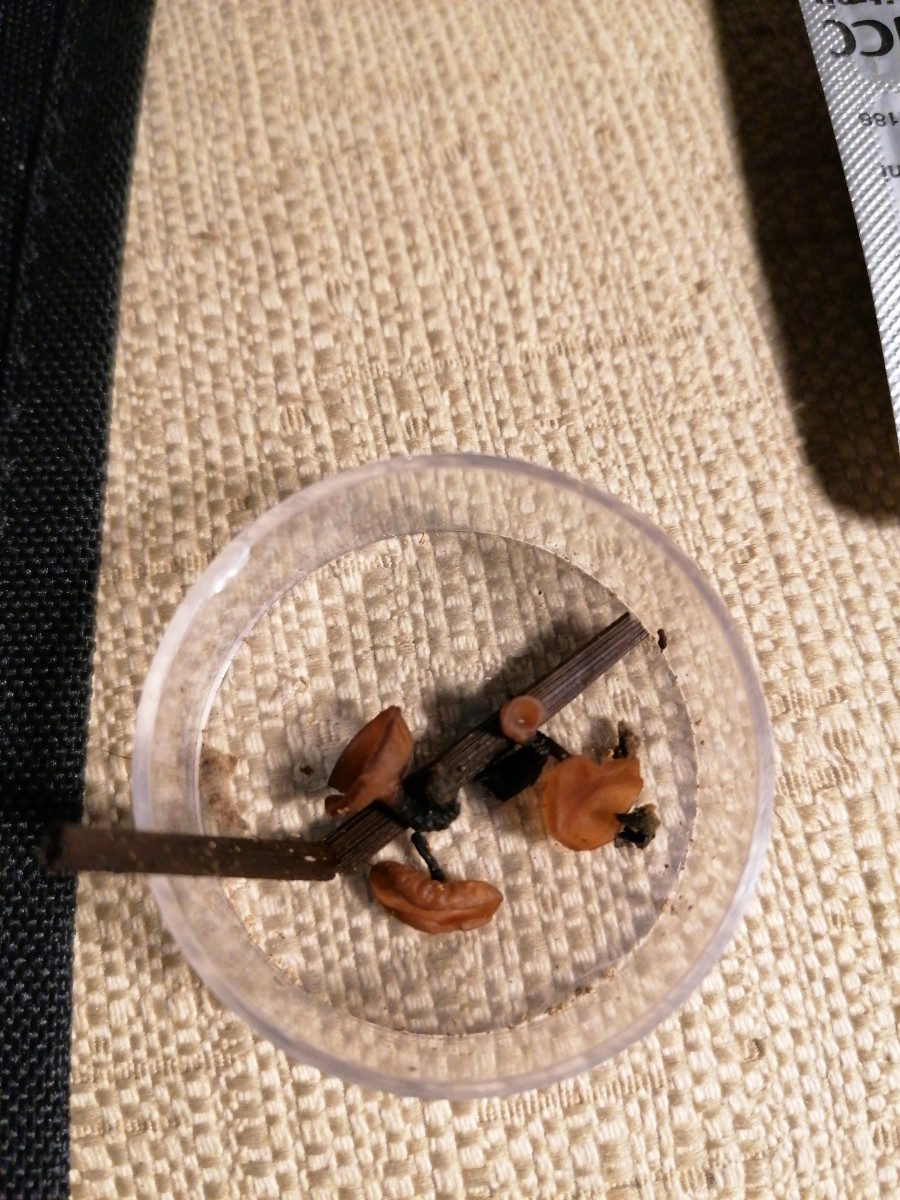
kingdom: Fungi
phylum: Ascomycota
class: Leotiomycetes
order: Helotiales
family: Sclerotiniaceae
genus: Myriosclerotinia
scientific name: Myriosclerotinia curreyana
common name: siv-knoldskive
